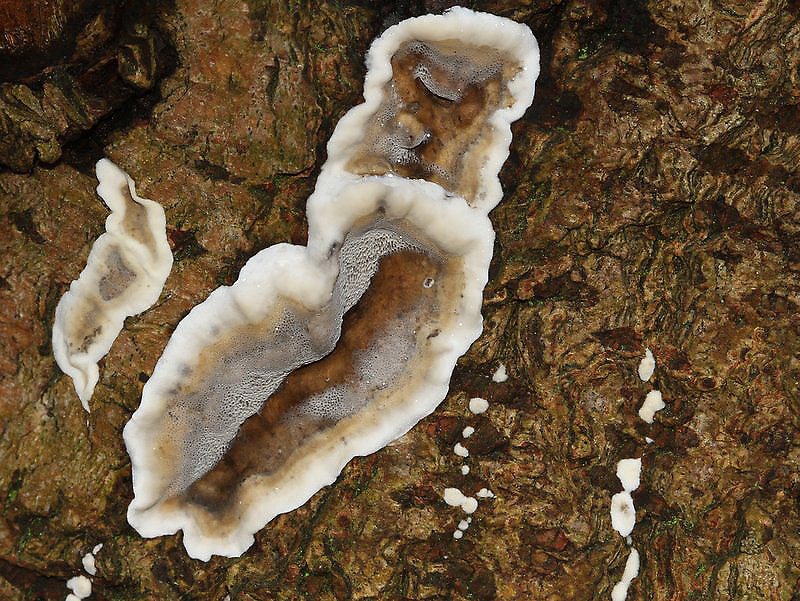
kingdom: Fungi
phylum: Basidiomycota
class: Agaricomycetes
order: Polyporales
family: Phanerochaetaceae
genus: Bjerkandera
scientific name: Bjerkandera adusta
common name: sveden sodporesvamp
